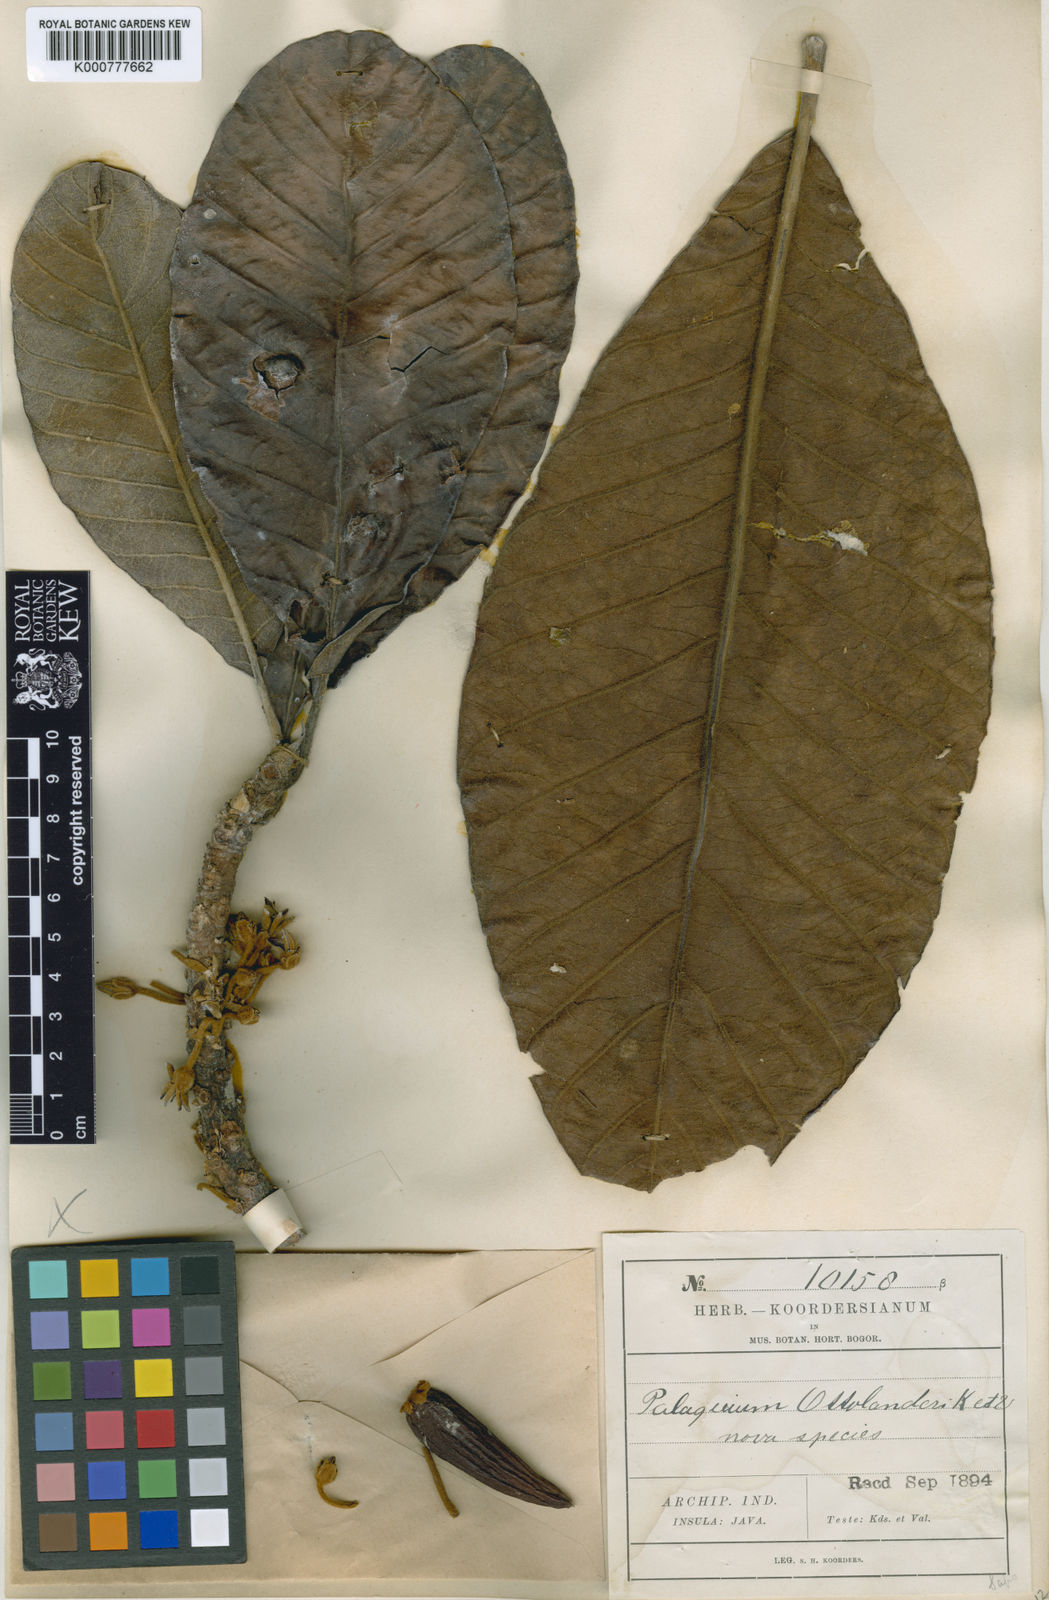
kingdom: Plantae
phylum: Tracheophyta
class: Magnoliopsida
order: Ericales
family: Sapotaceae
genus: Palaquium
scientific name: Palaquium ottolanderi
